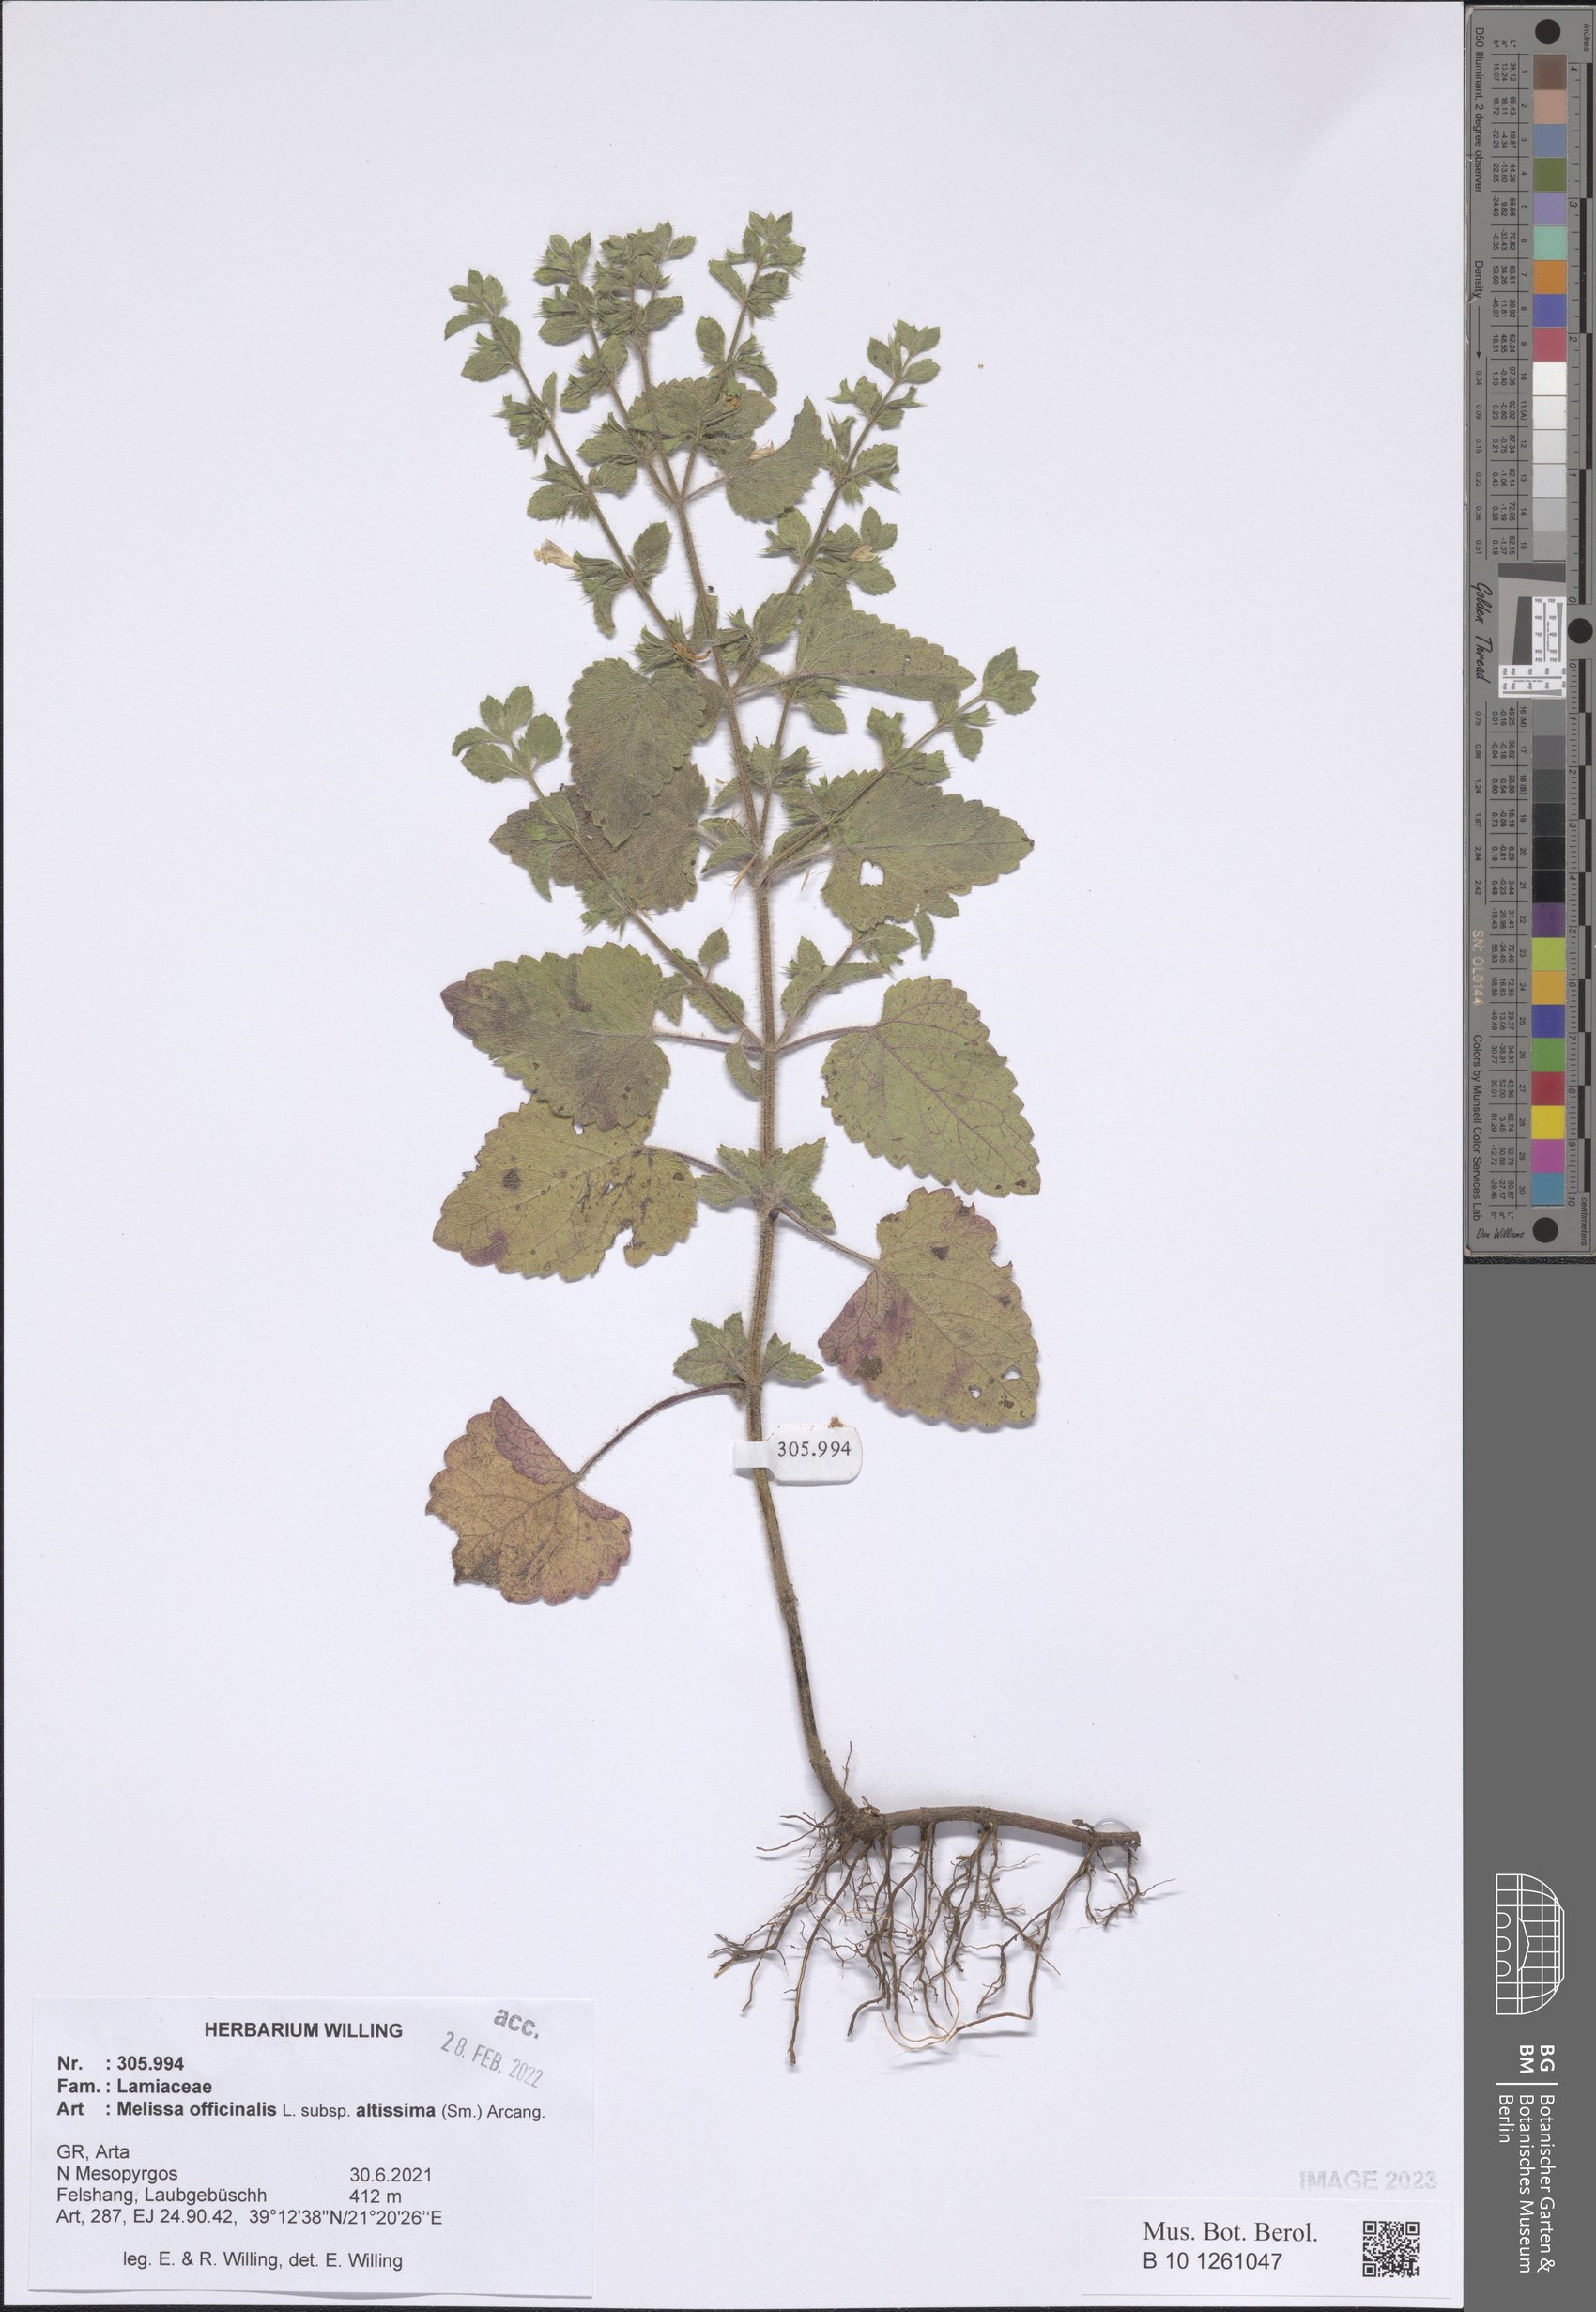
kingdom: Plantae
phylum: Tracheophyta
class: Magnoliopsida
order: Lamiales
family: Lamiaceae
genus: Melissa
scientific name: Melissa officinalis
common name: Balm
